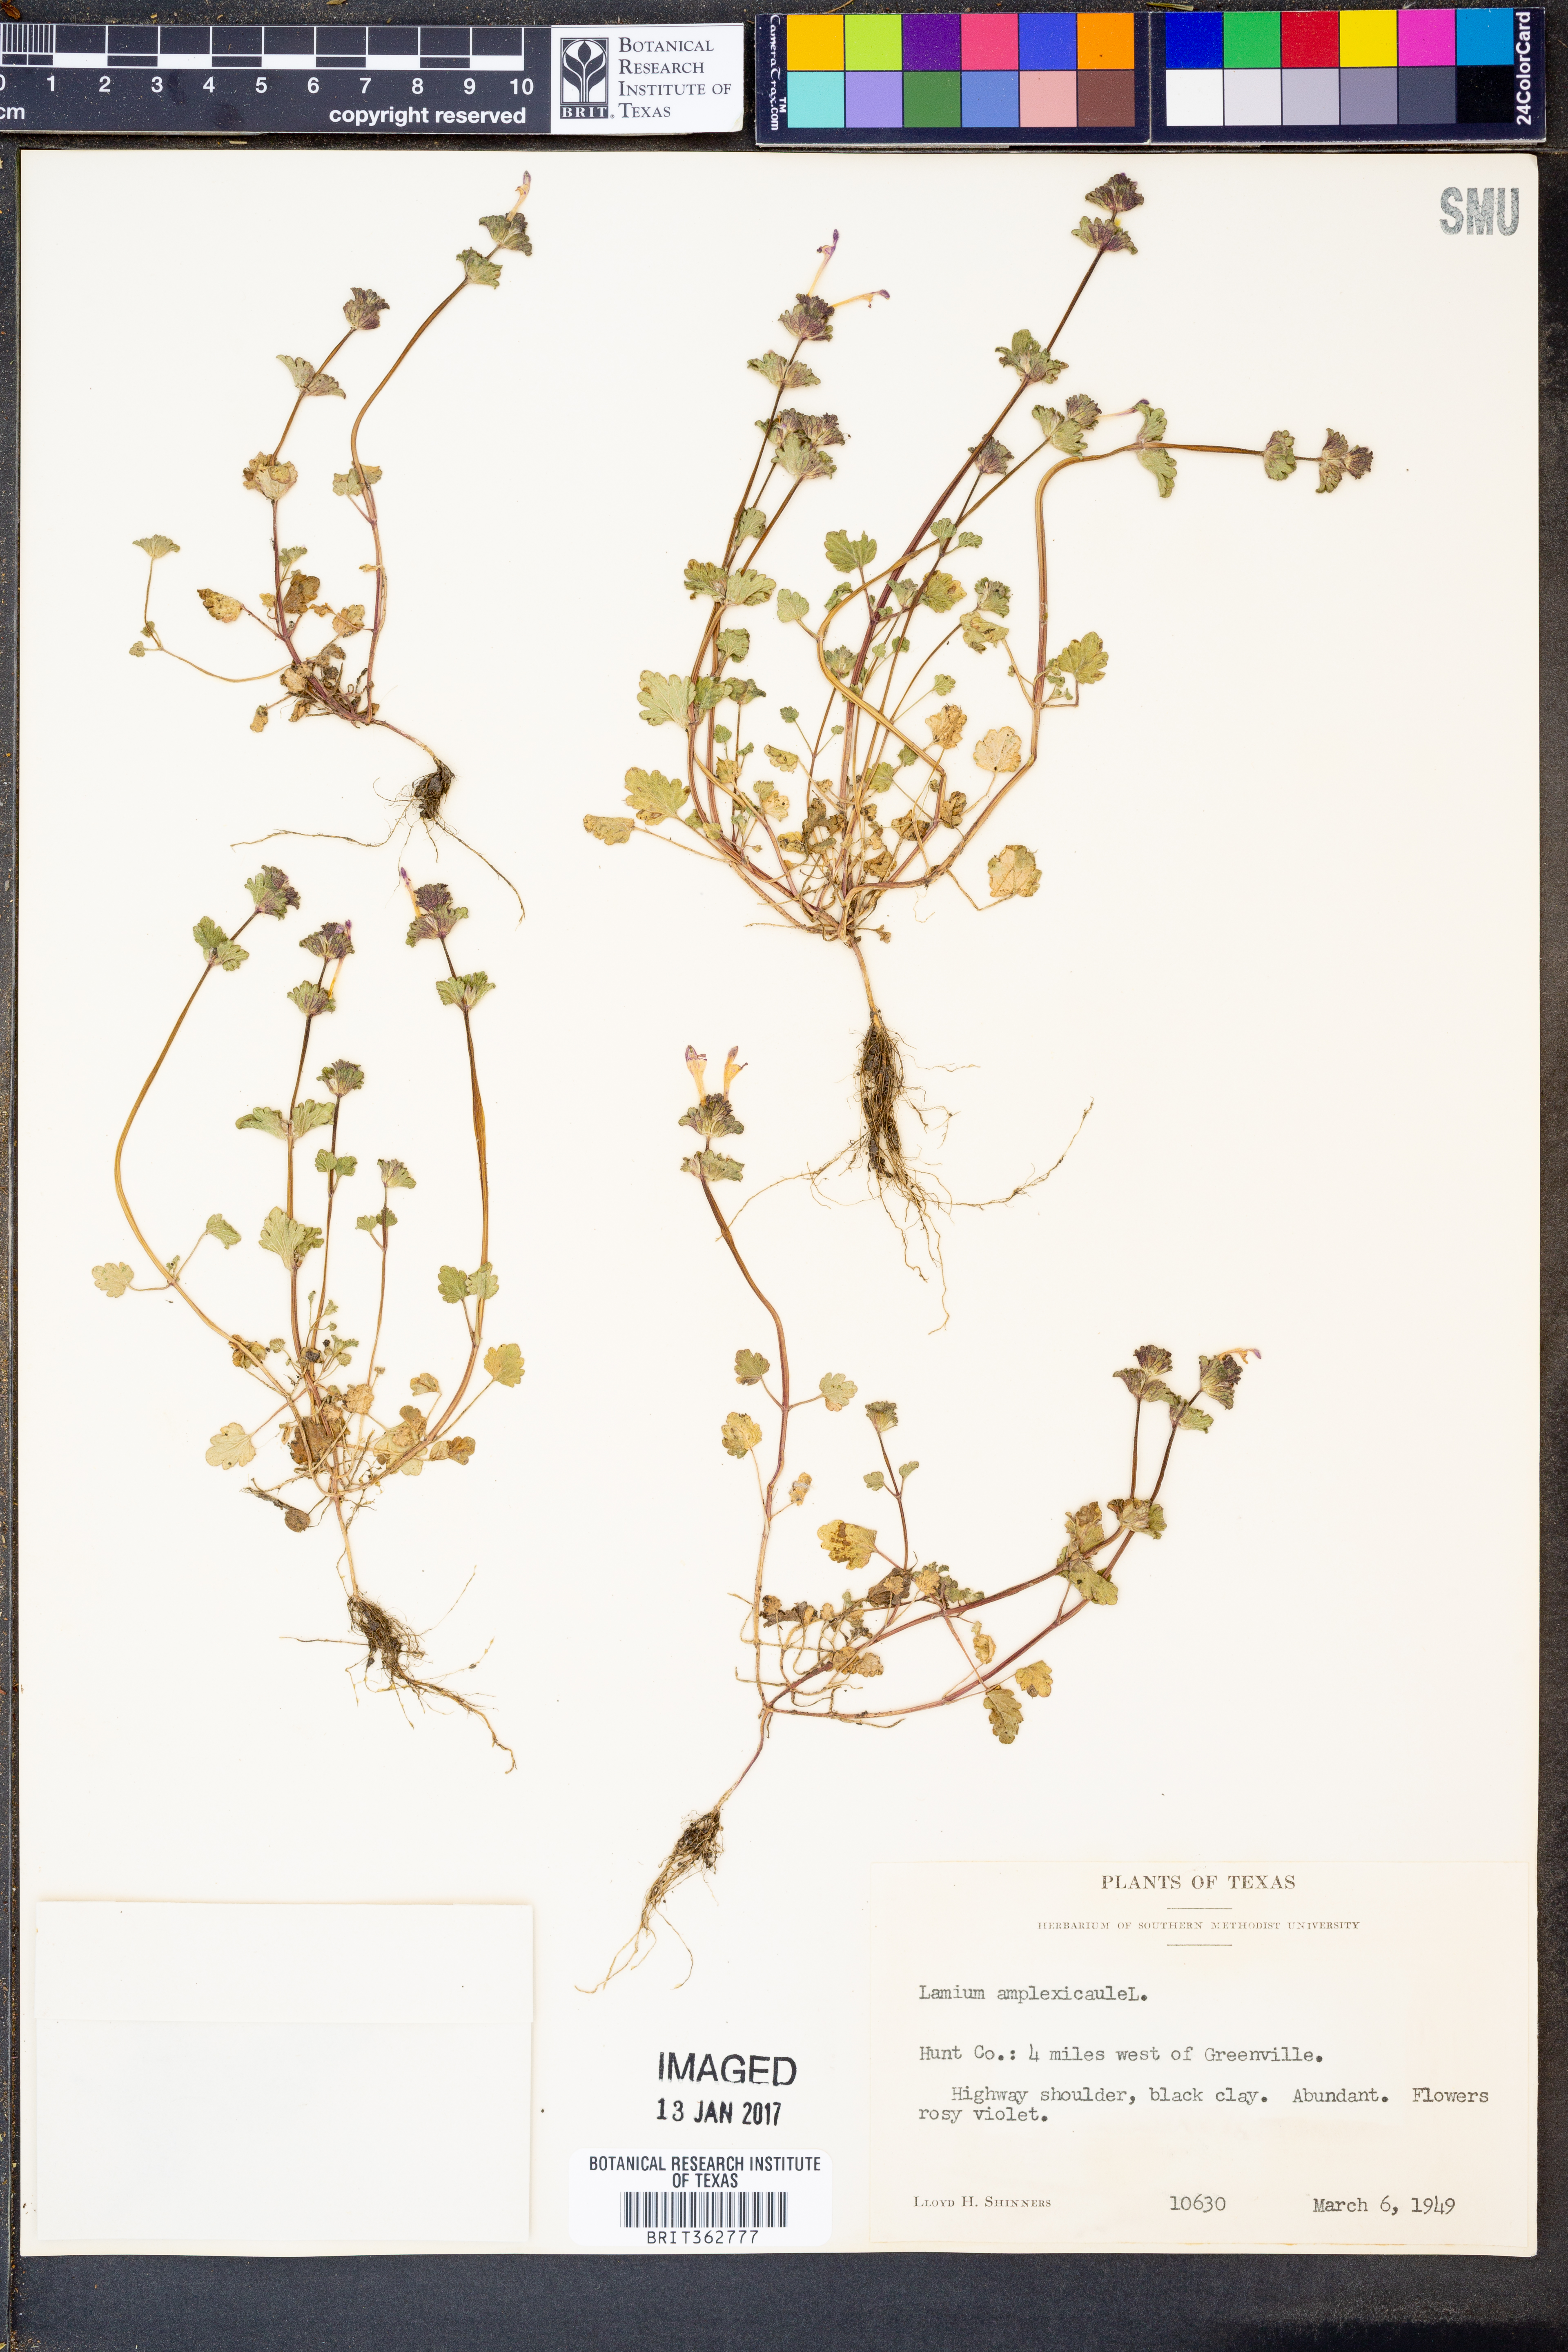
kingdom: Plantae
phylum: Tracheophyta
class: Magnoliopsida
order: Lamiales
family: Lamiaceae
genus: Lamium
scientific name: Lamium amplexicaule
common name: Henbit dead-nettle
